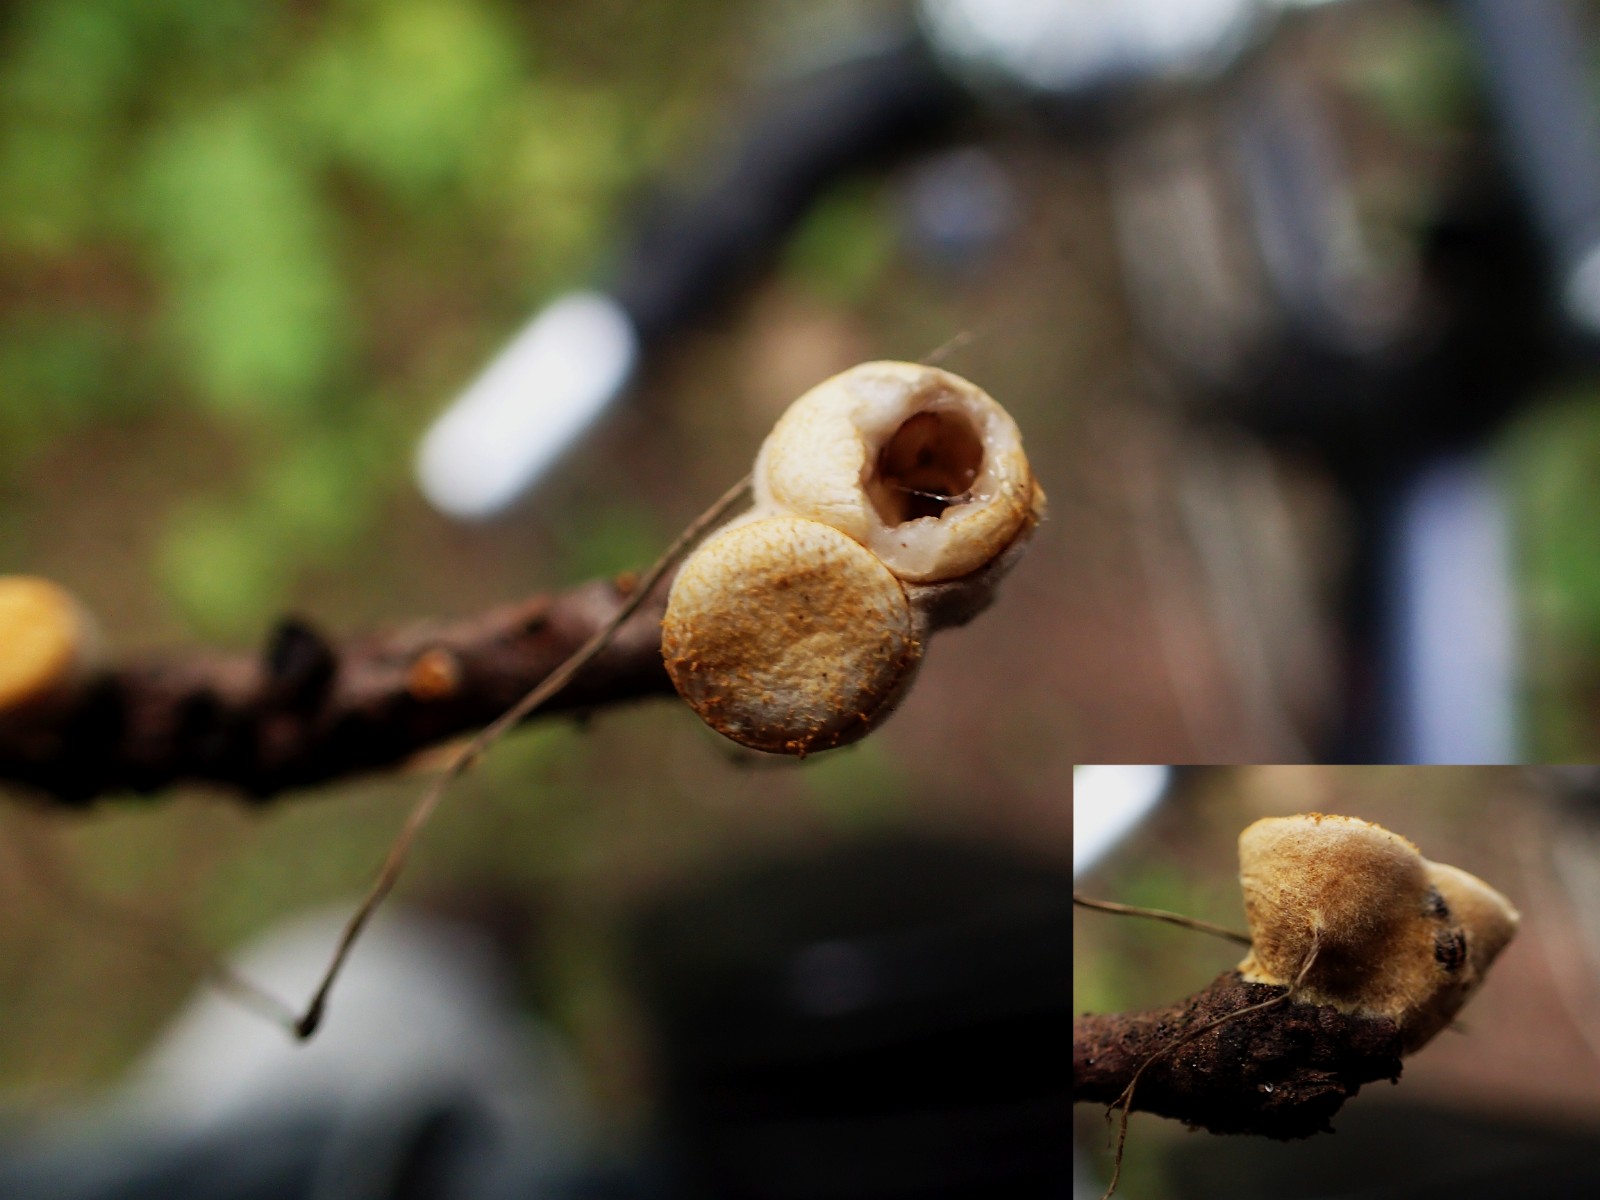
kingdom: Fungi
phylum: Basidiomycota
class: Agaricomycetes
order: Agaricales
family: Nidulariaceae
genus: Crucibulum
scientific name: Crucibulum crucibuliforme
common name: krukkesvamp
